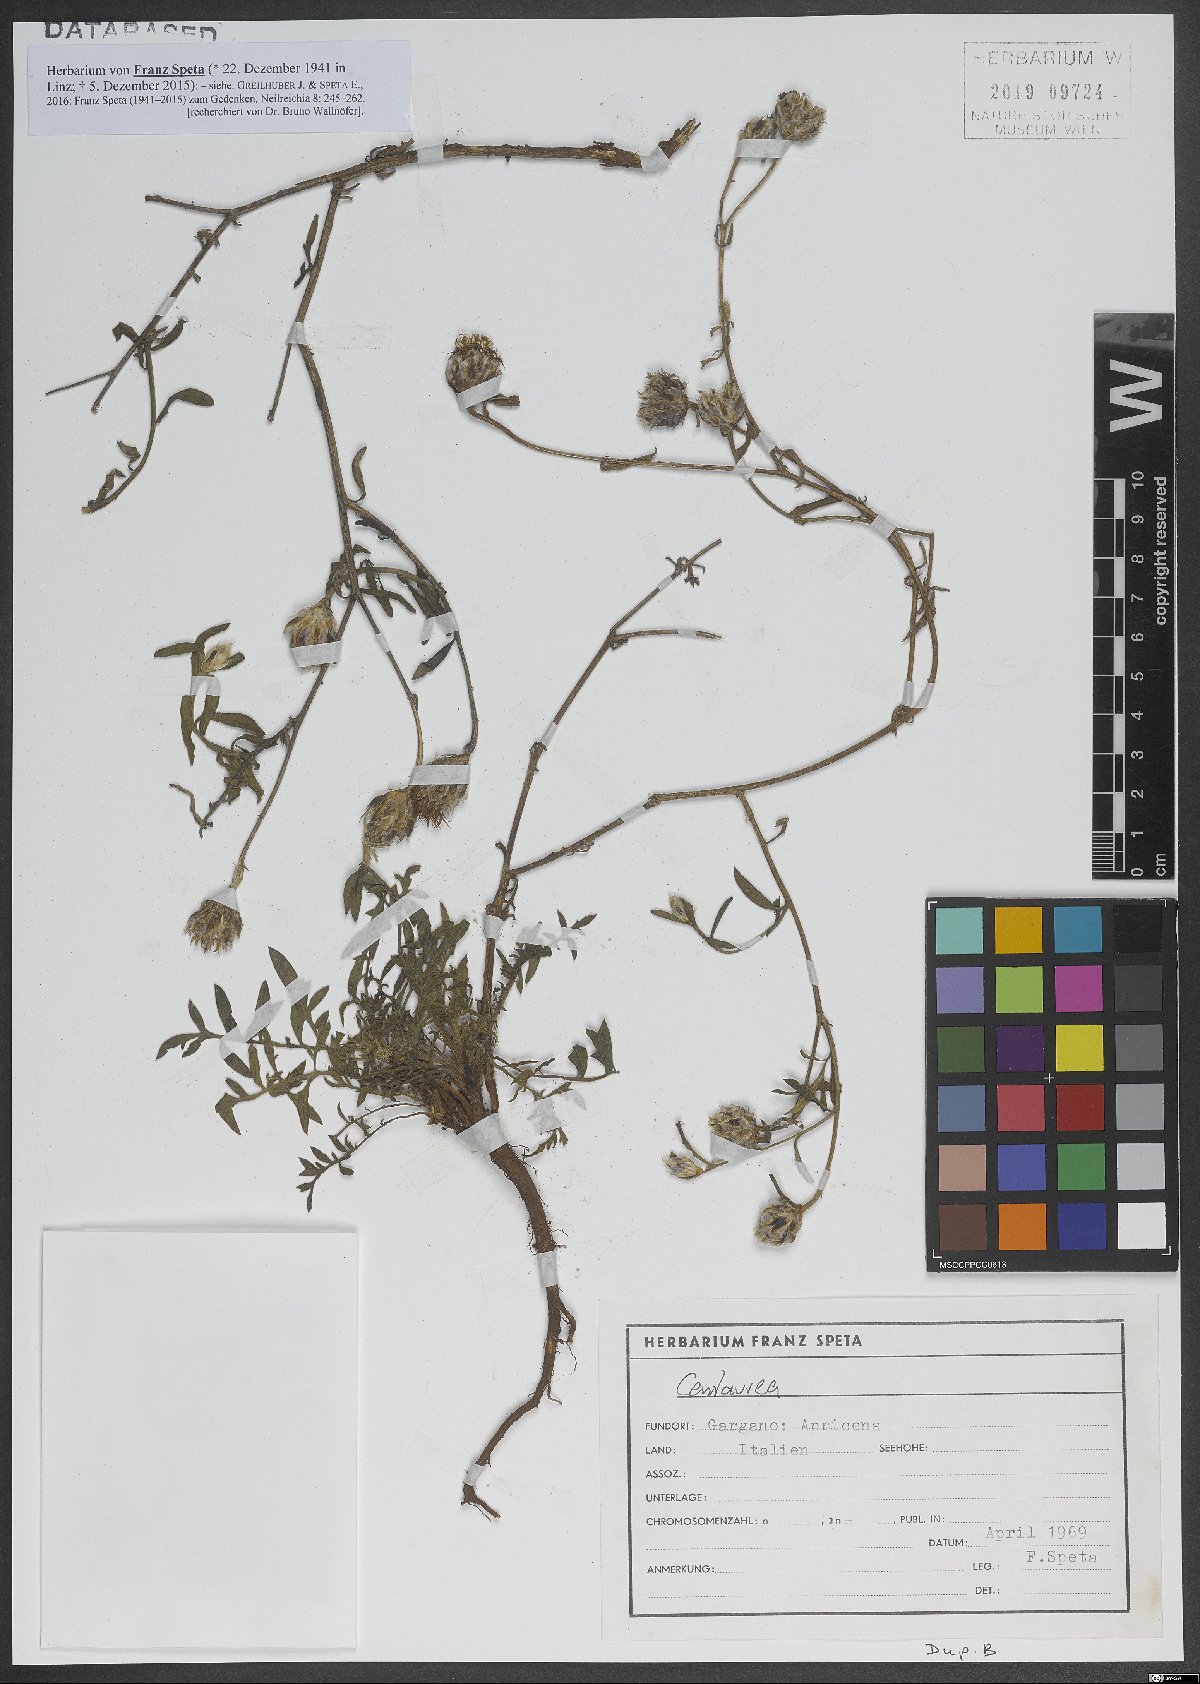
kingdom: Plantae
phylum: Tracheophyta
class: Magnoliopsida
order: Asterales
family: Asteraceae
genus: Centaurea
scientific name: Centaurea
